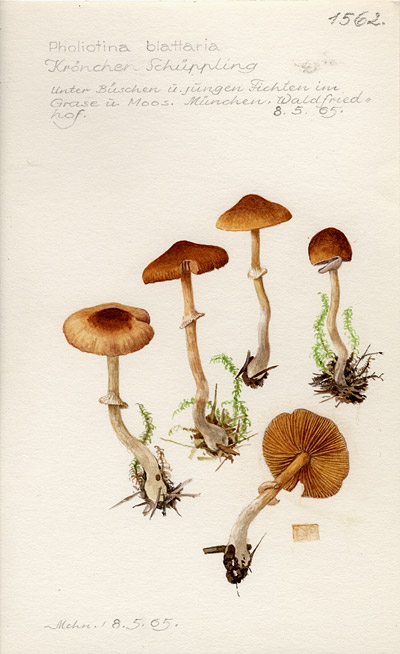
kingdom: Fungi
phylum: Basidiomycota
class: Agaricomycetes
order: Agaricales
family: Bolbitiaceae
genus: Pholiotina
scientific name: Pholiotina blattaria
